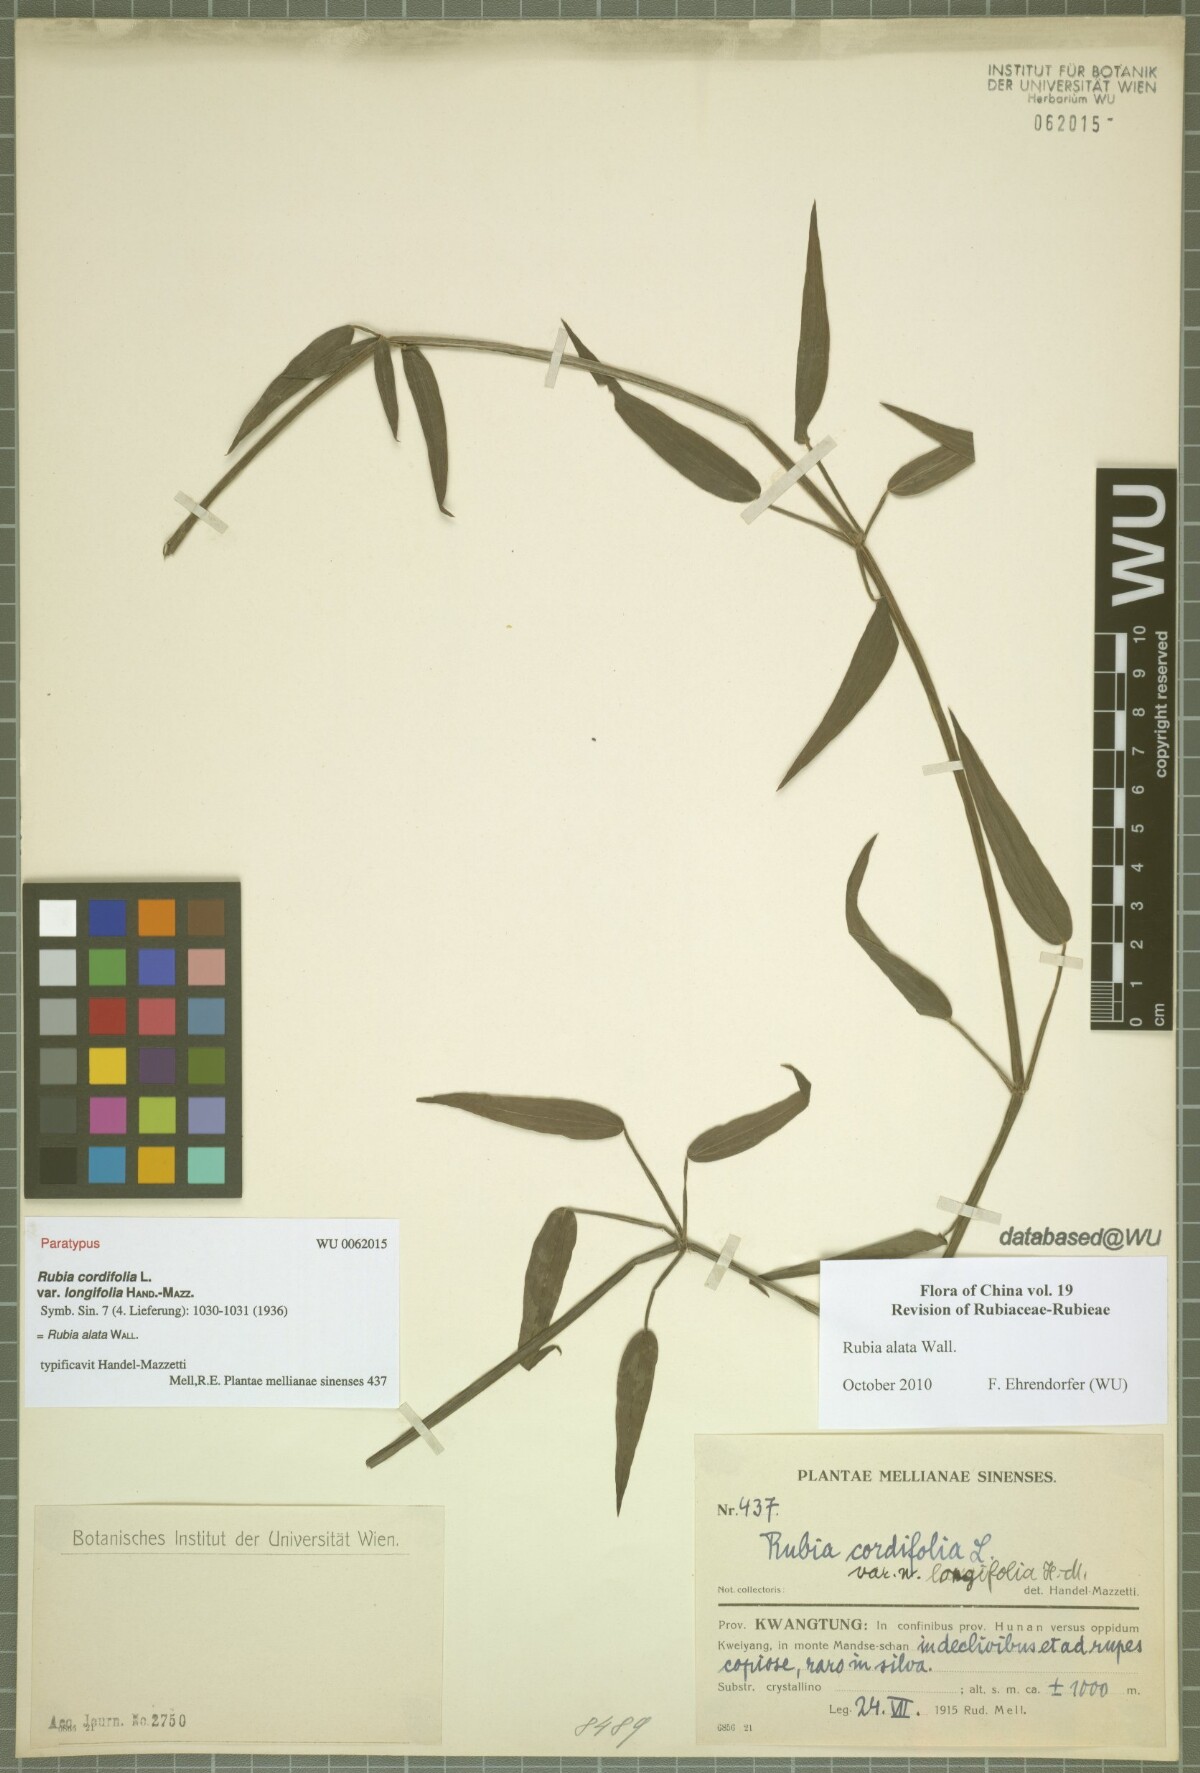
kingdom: Plantae
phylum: Tracheophyta
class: Magnoliopsida
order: Gentianales
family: Rubiaceae
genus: Rubia
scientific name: Rubia alata
